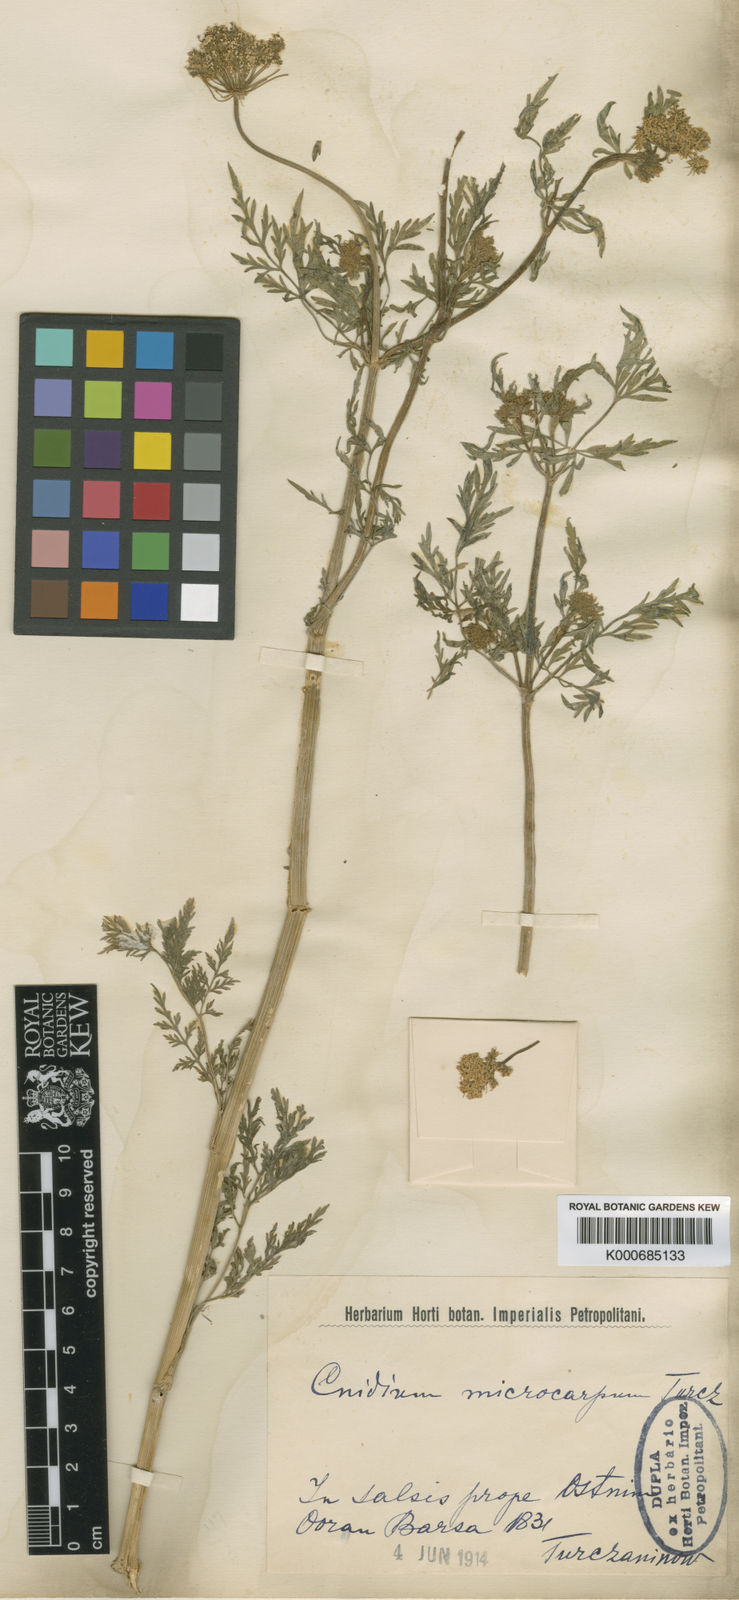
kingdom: Plantae
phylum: Tracheophyta
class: Magnoliopsida
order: Apiales
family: Apiaceae
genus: Cnidium
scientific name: Cnidium
